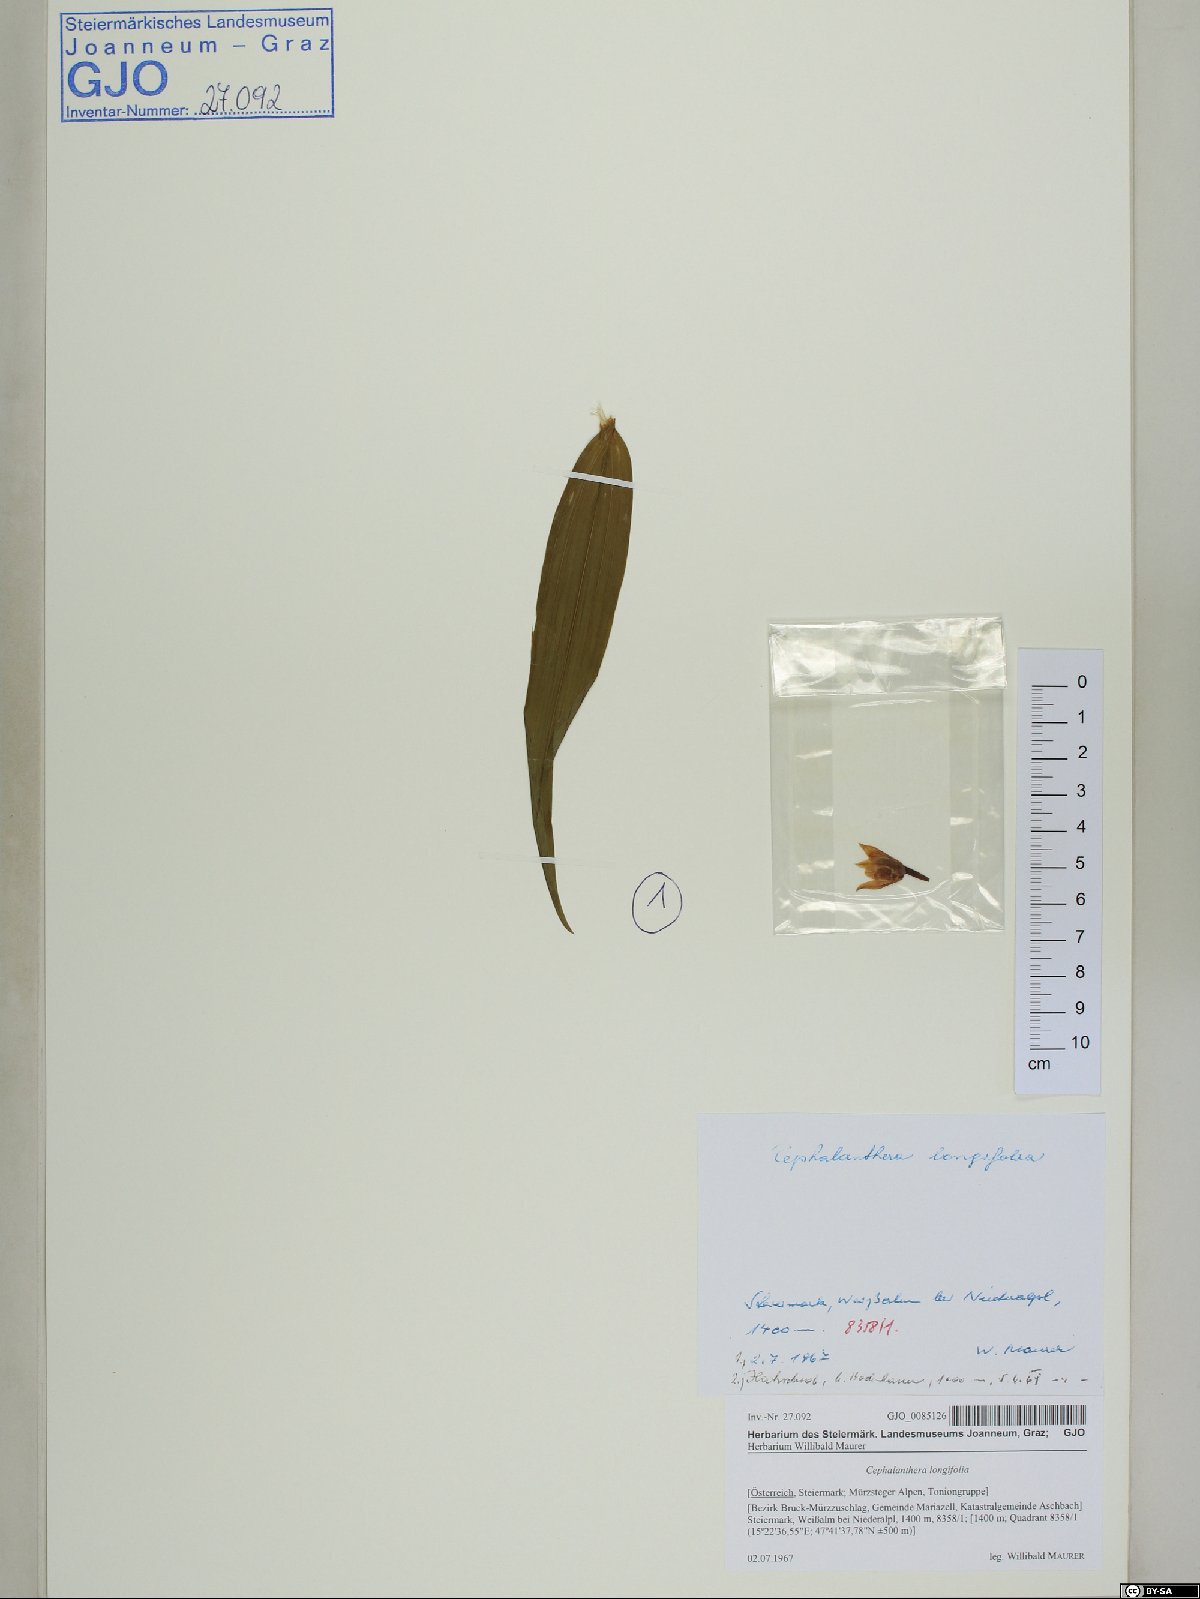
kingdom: Plantae
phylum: Tracheophyta
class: Liliopsida
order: Asparagales
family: Orchidaceae
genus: Cephalanthera
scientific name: Cephalanthera longifolia
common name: Narrow-leaved helleborine
